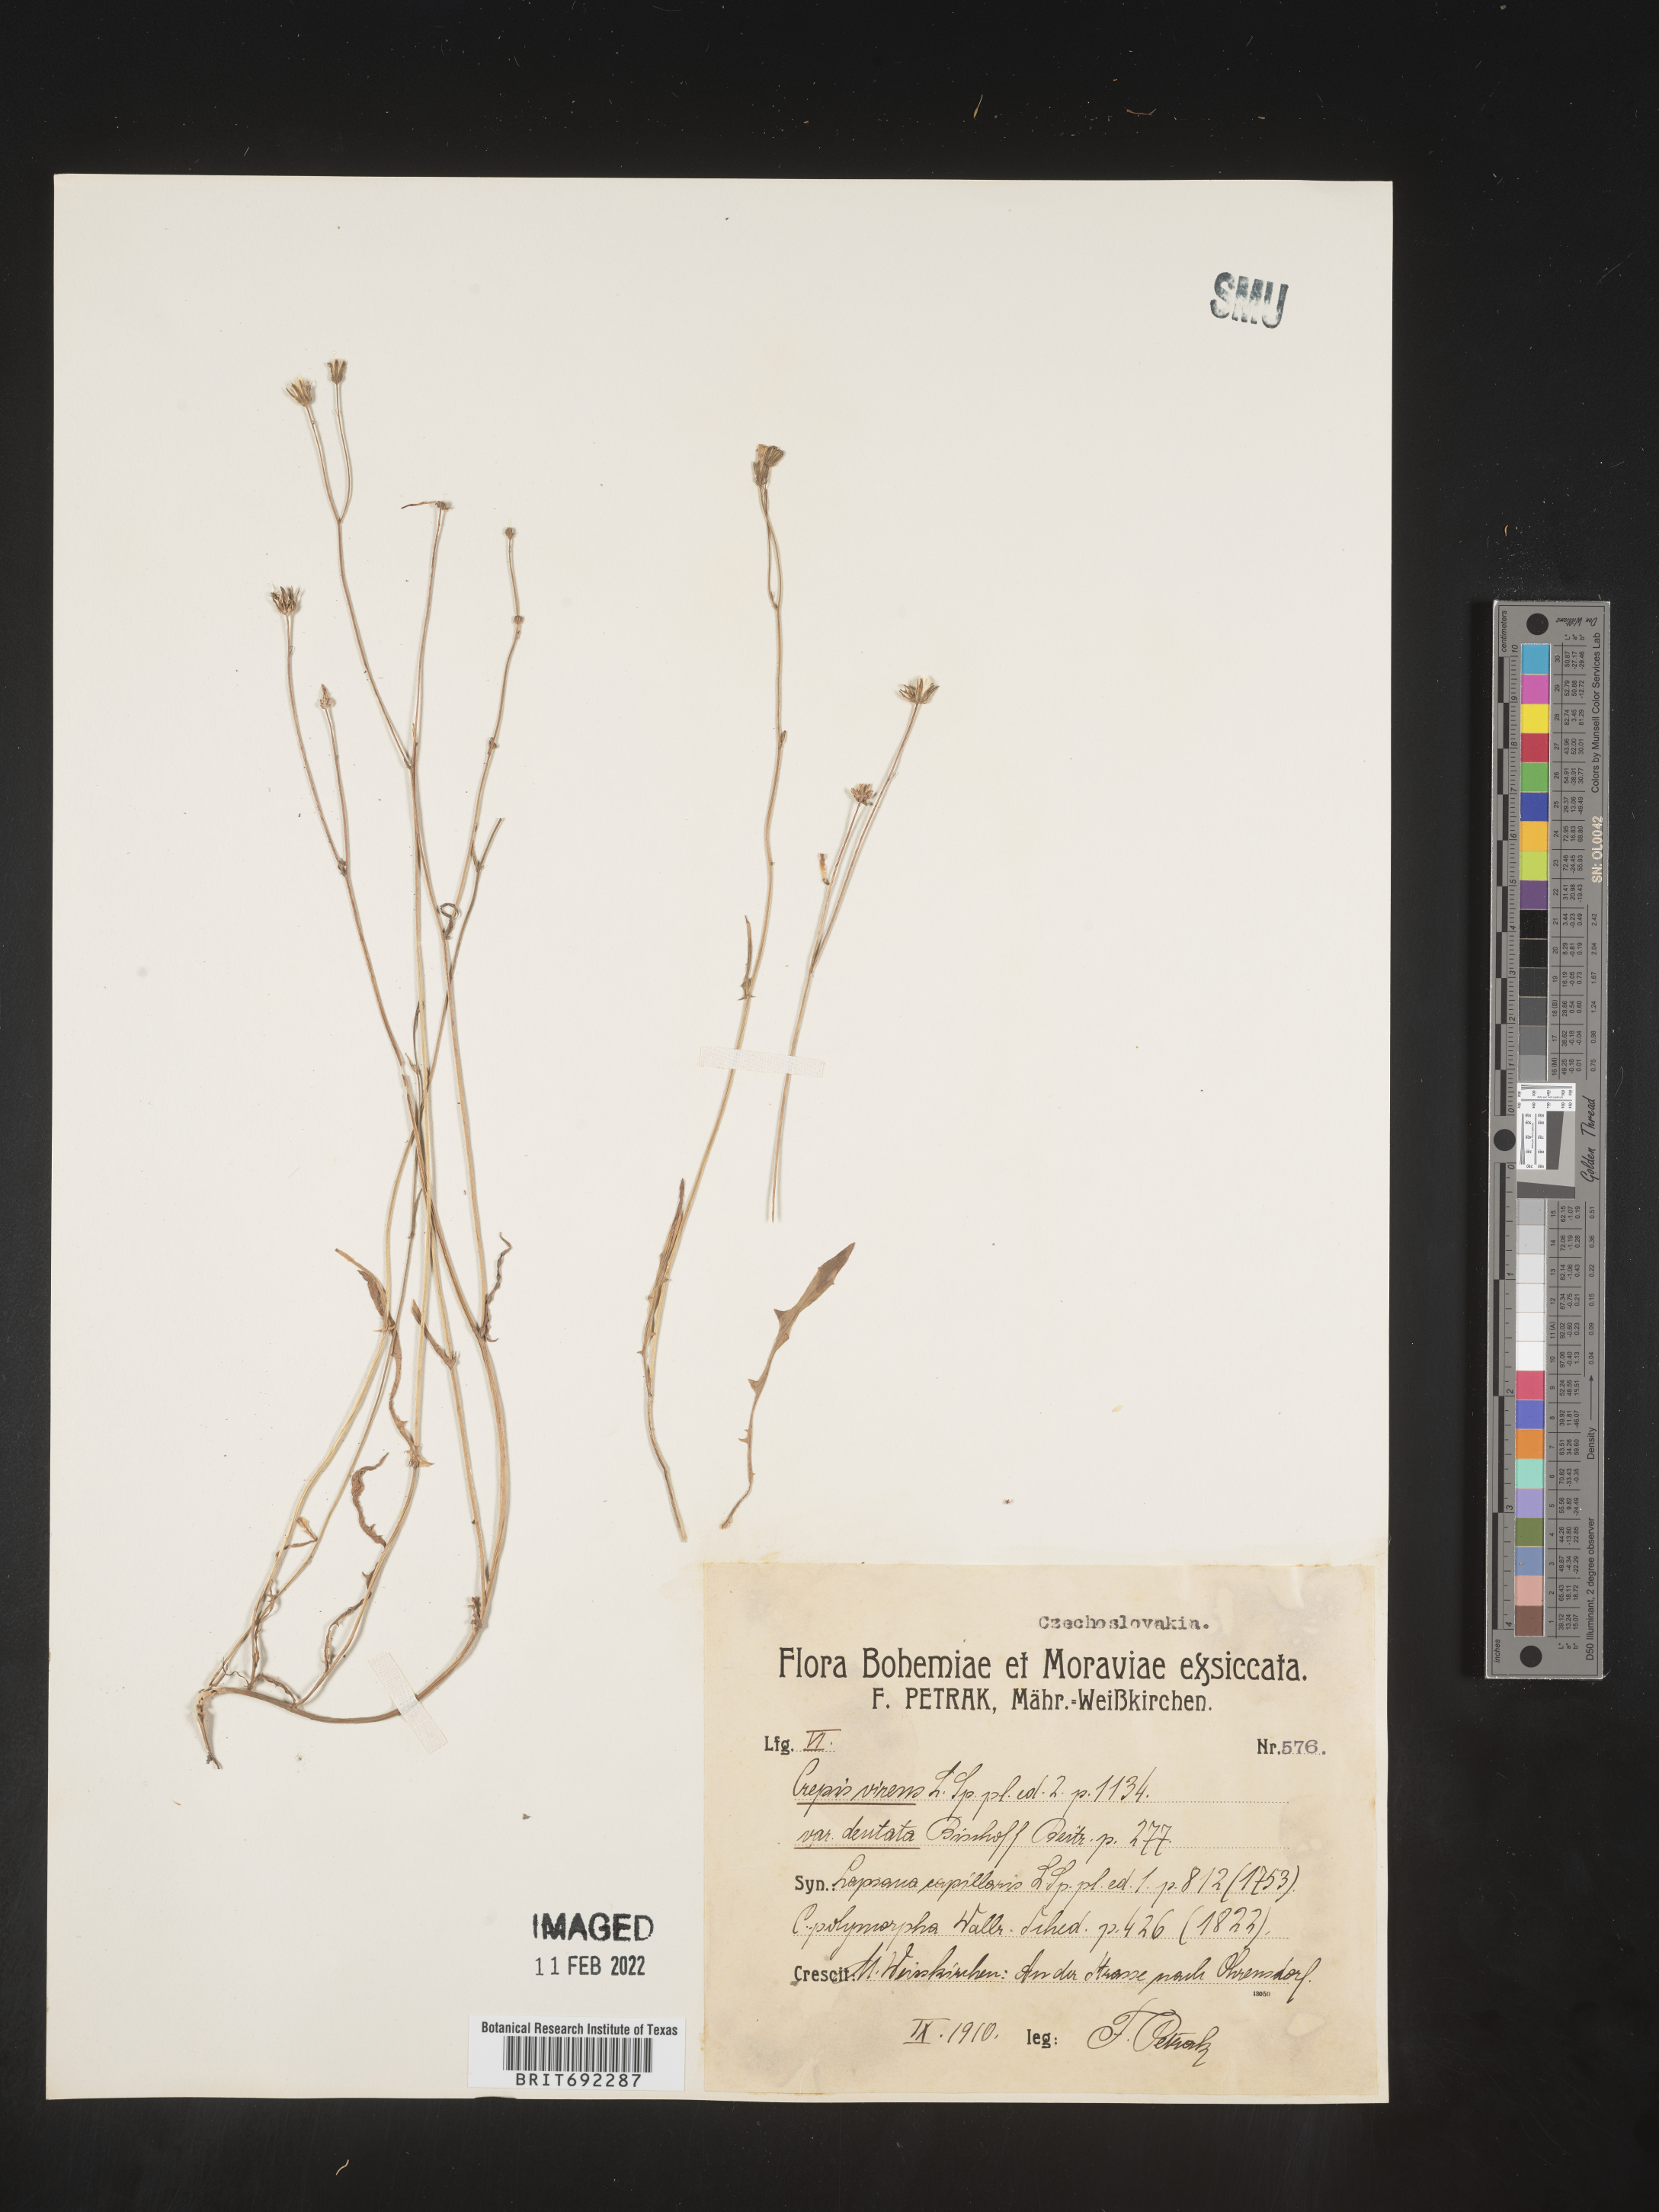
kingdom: Plantae
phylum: Tracheophyta
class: Magnoliopsida
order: Asterales
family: Asteraceae
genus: Crepis
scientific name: Crepis
